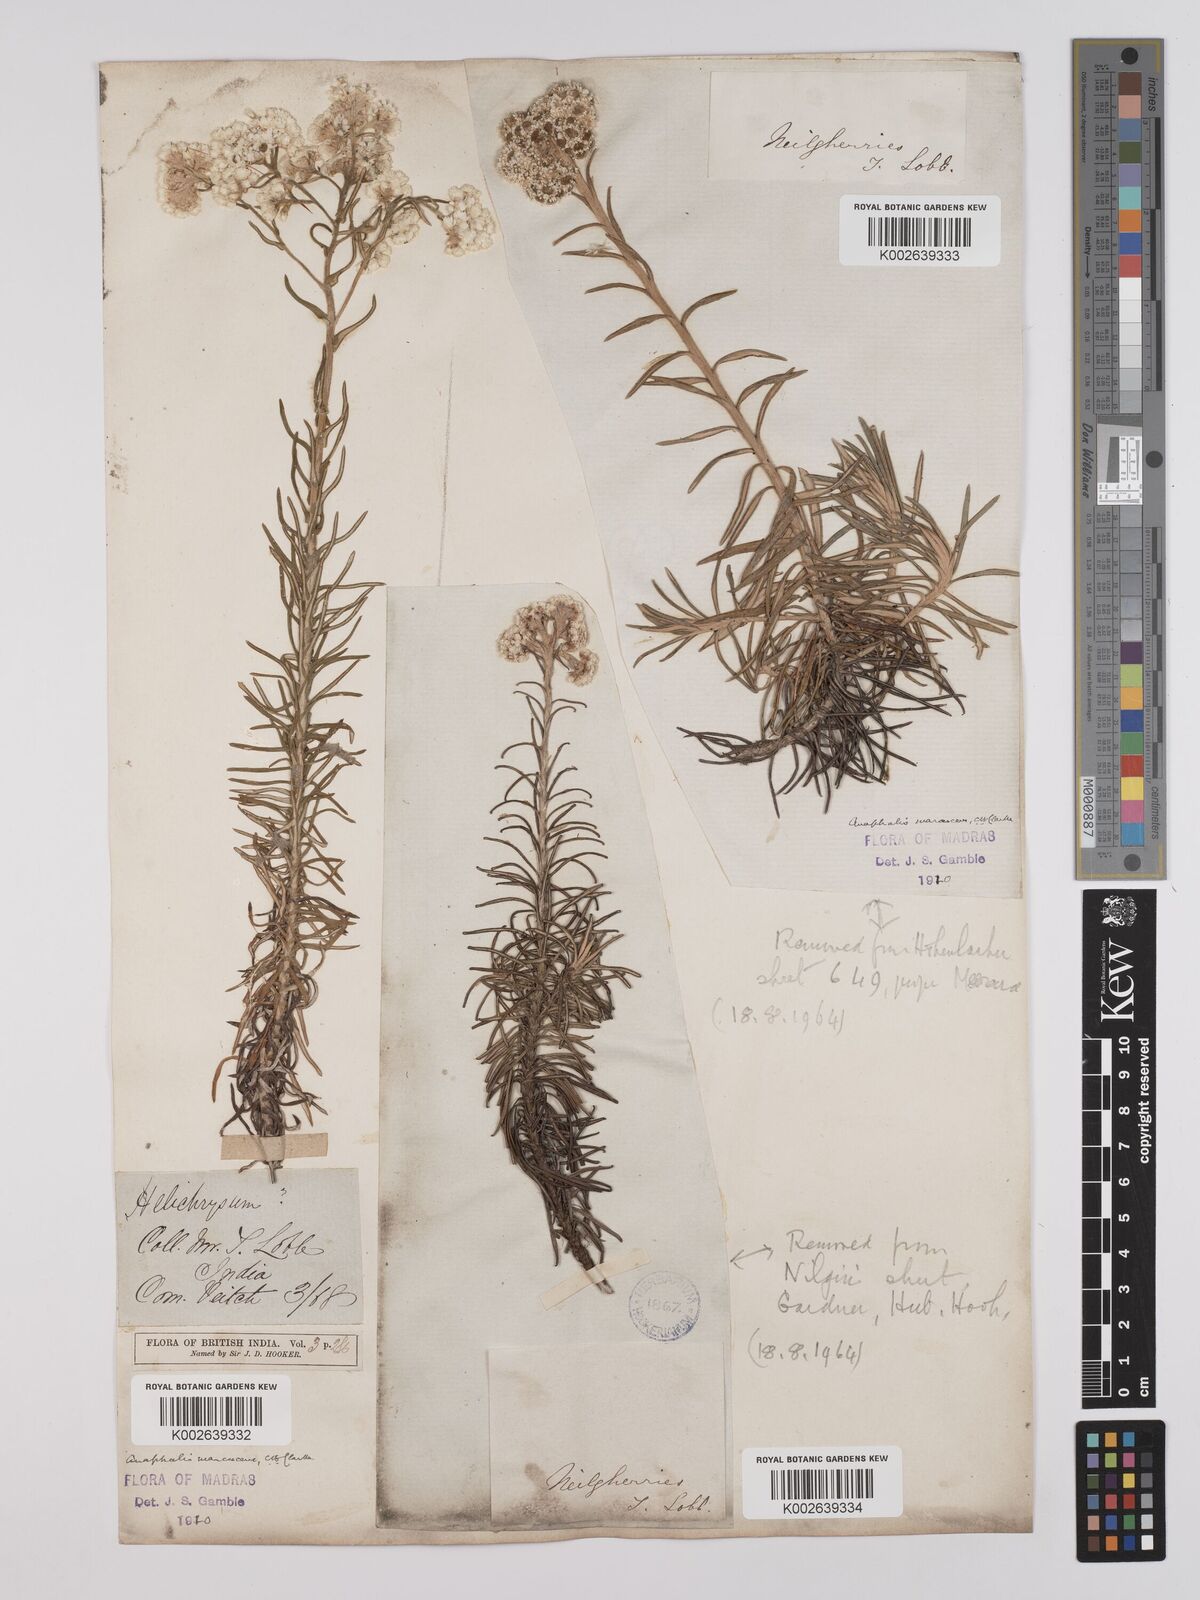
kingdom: Plantae
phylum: Tracheophyta
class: Magnoliopsida
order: Asterales
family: Asteraceae
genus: Anaphalis
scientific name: Anaphalis marcescens
